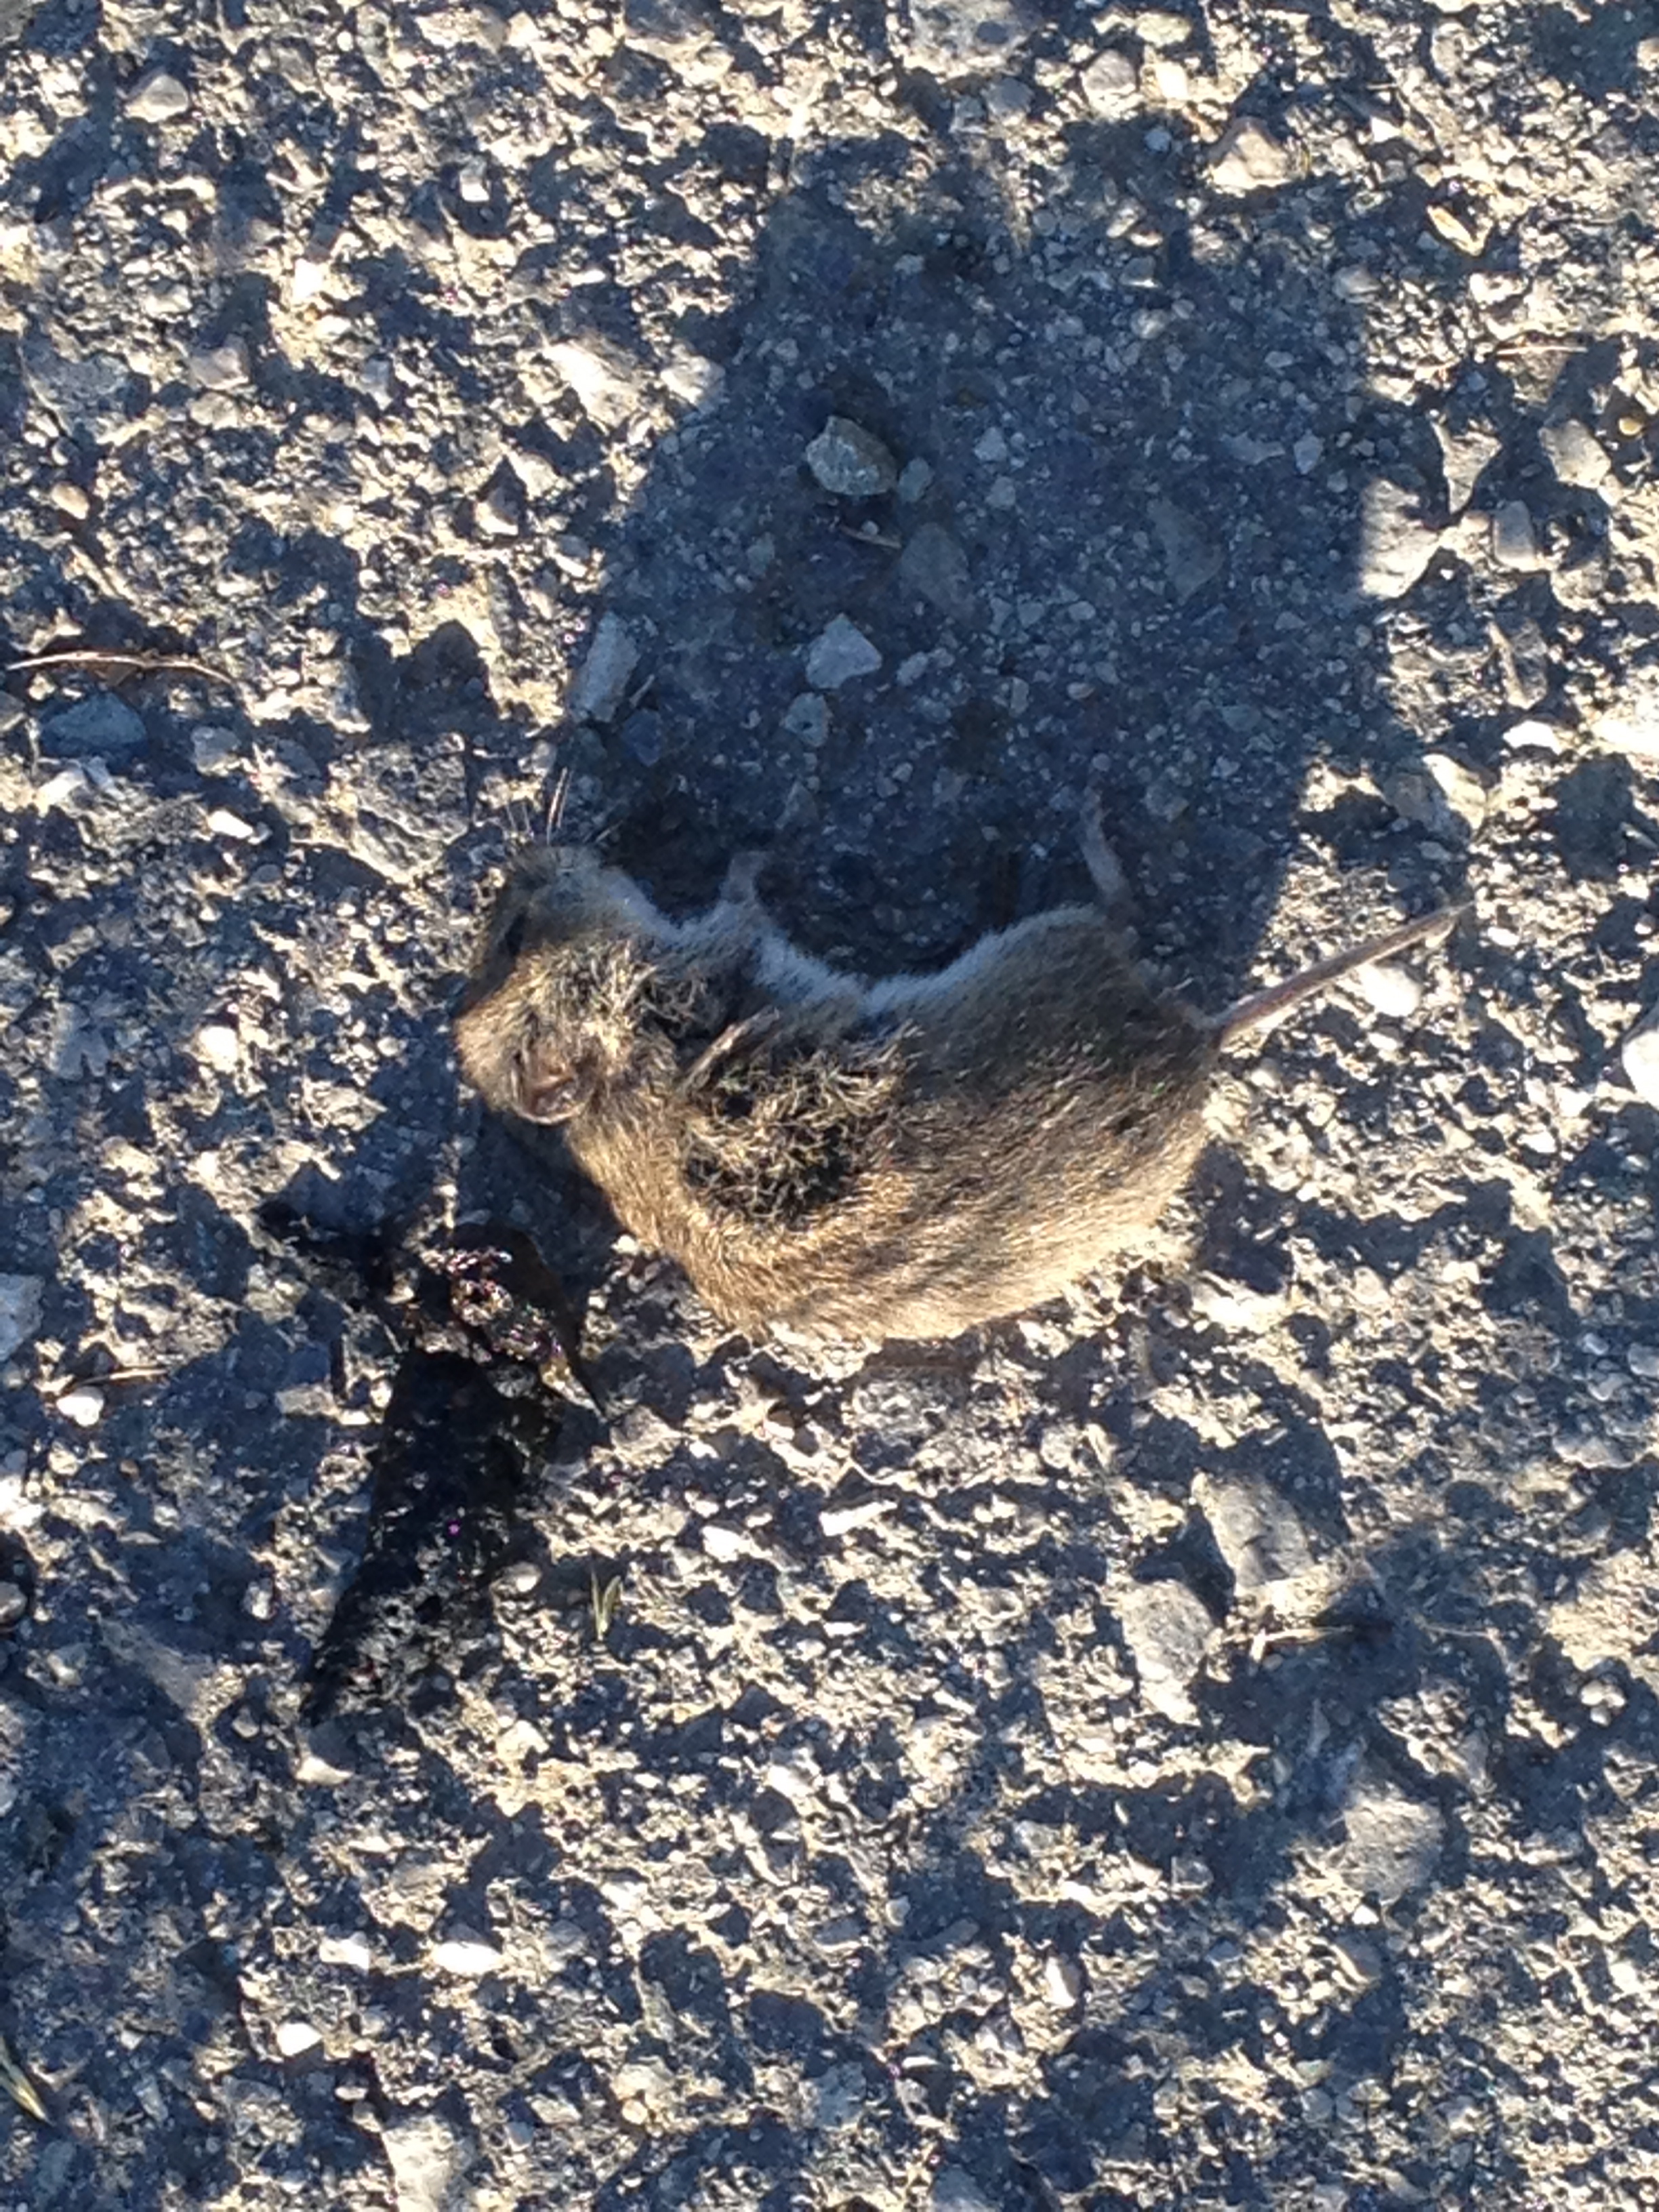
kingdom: Animalia
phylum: Chordata
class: Mammalia
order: Rodentia
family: Cricetidae
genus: Microtus
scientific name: Microtus
